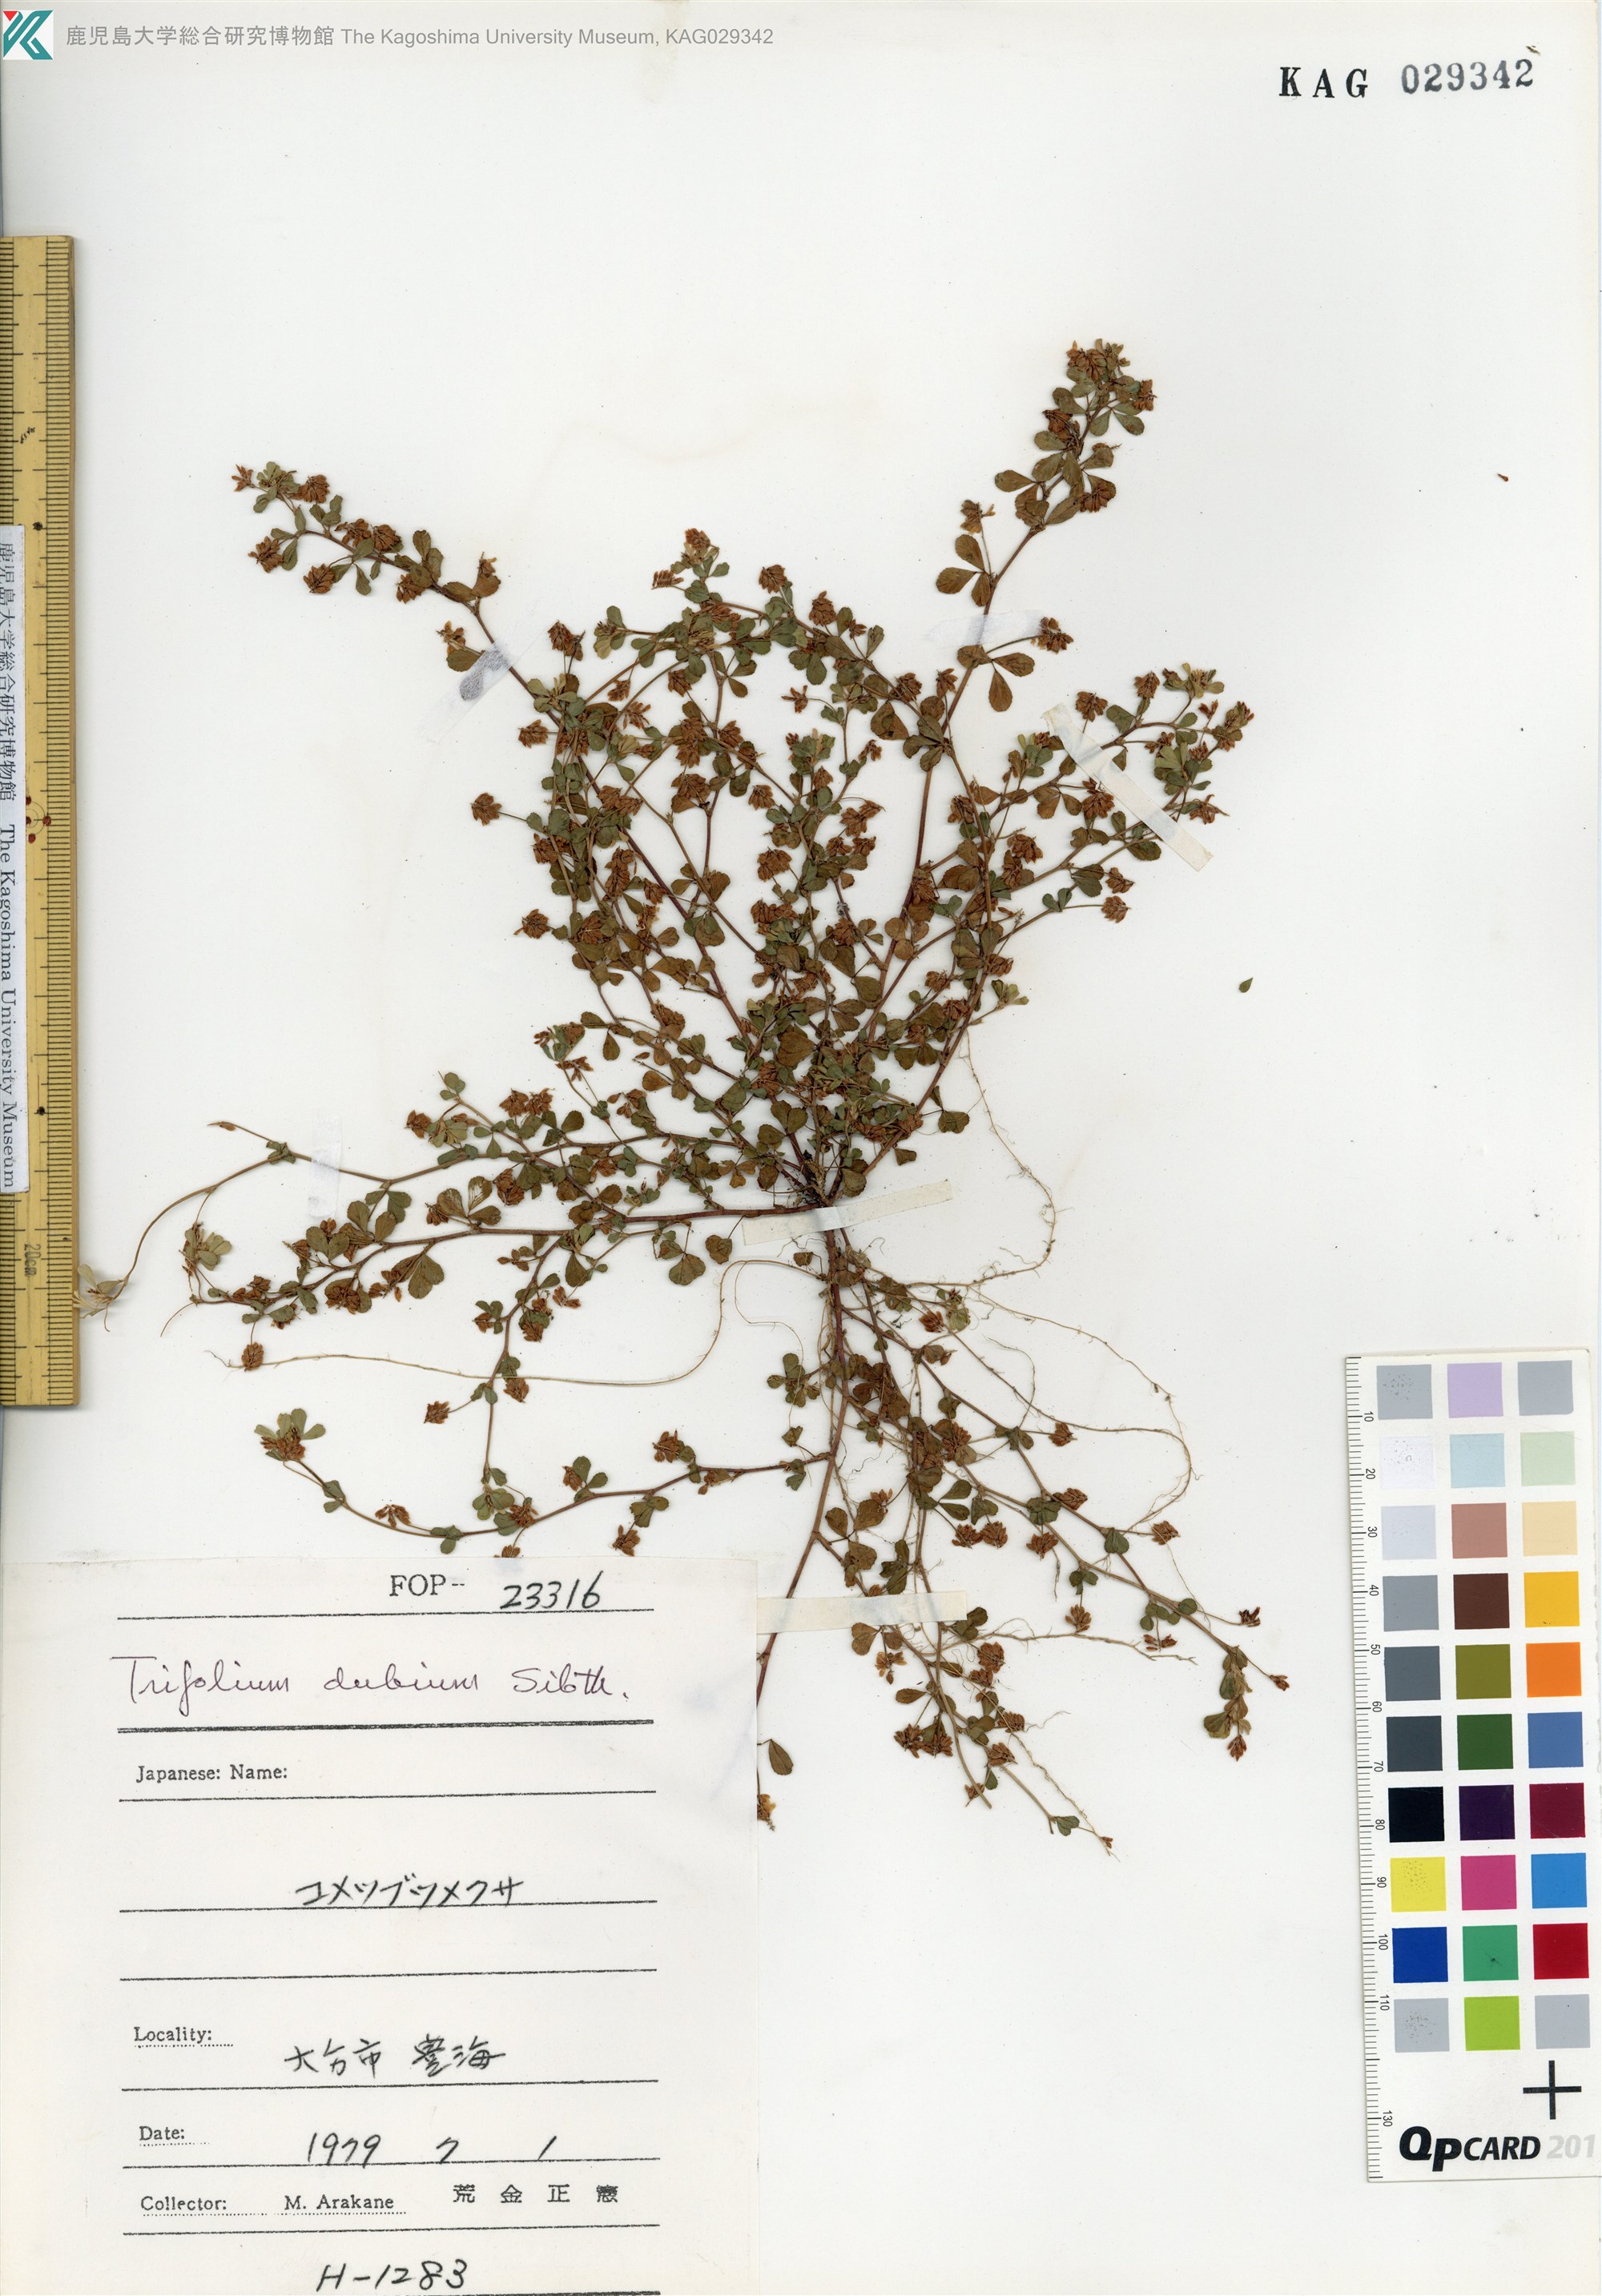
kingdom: Plantae
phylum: Tracheophyta
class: Magnoliopsida
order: Fabales
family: Fabaceae
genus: Trifolium
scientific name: Trifolium dubium
